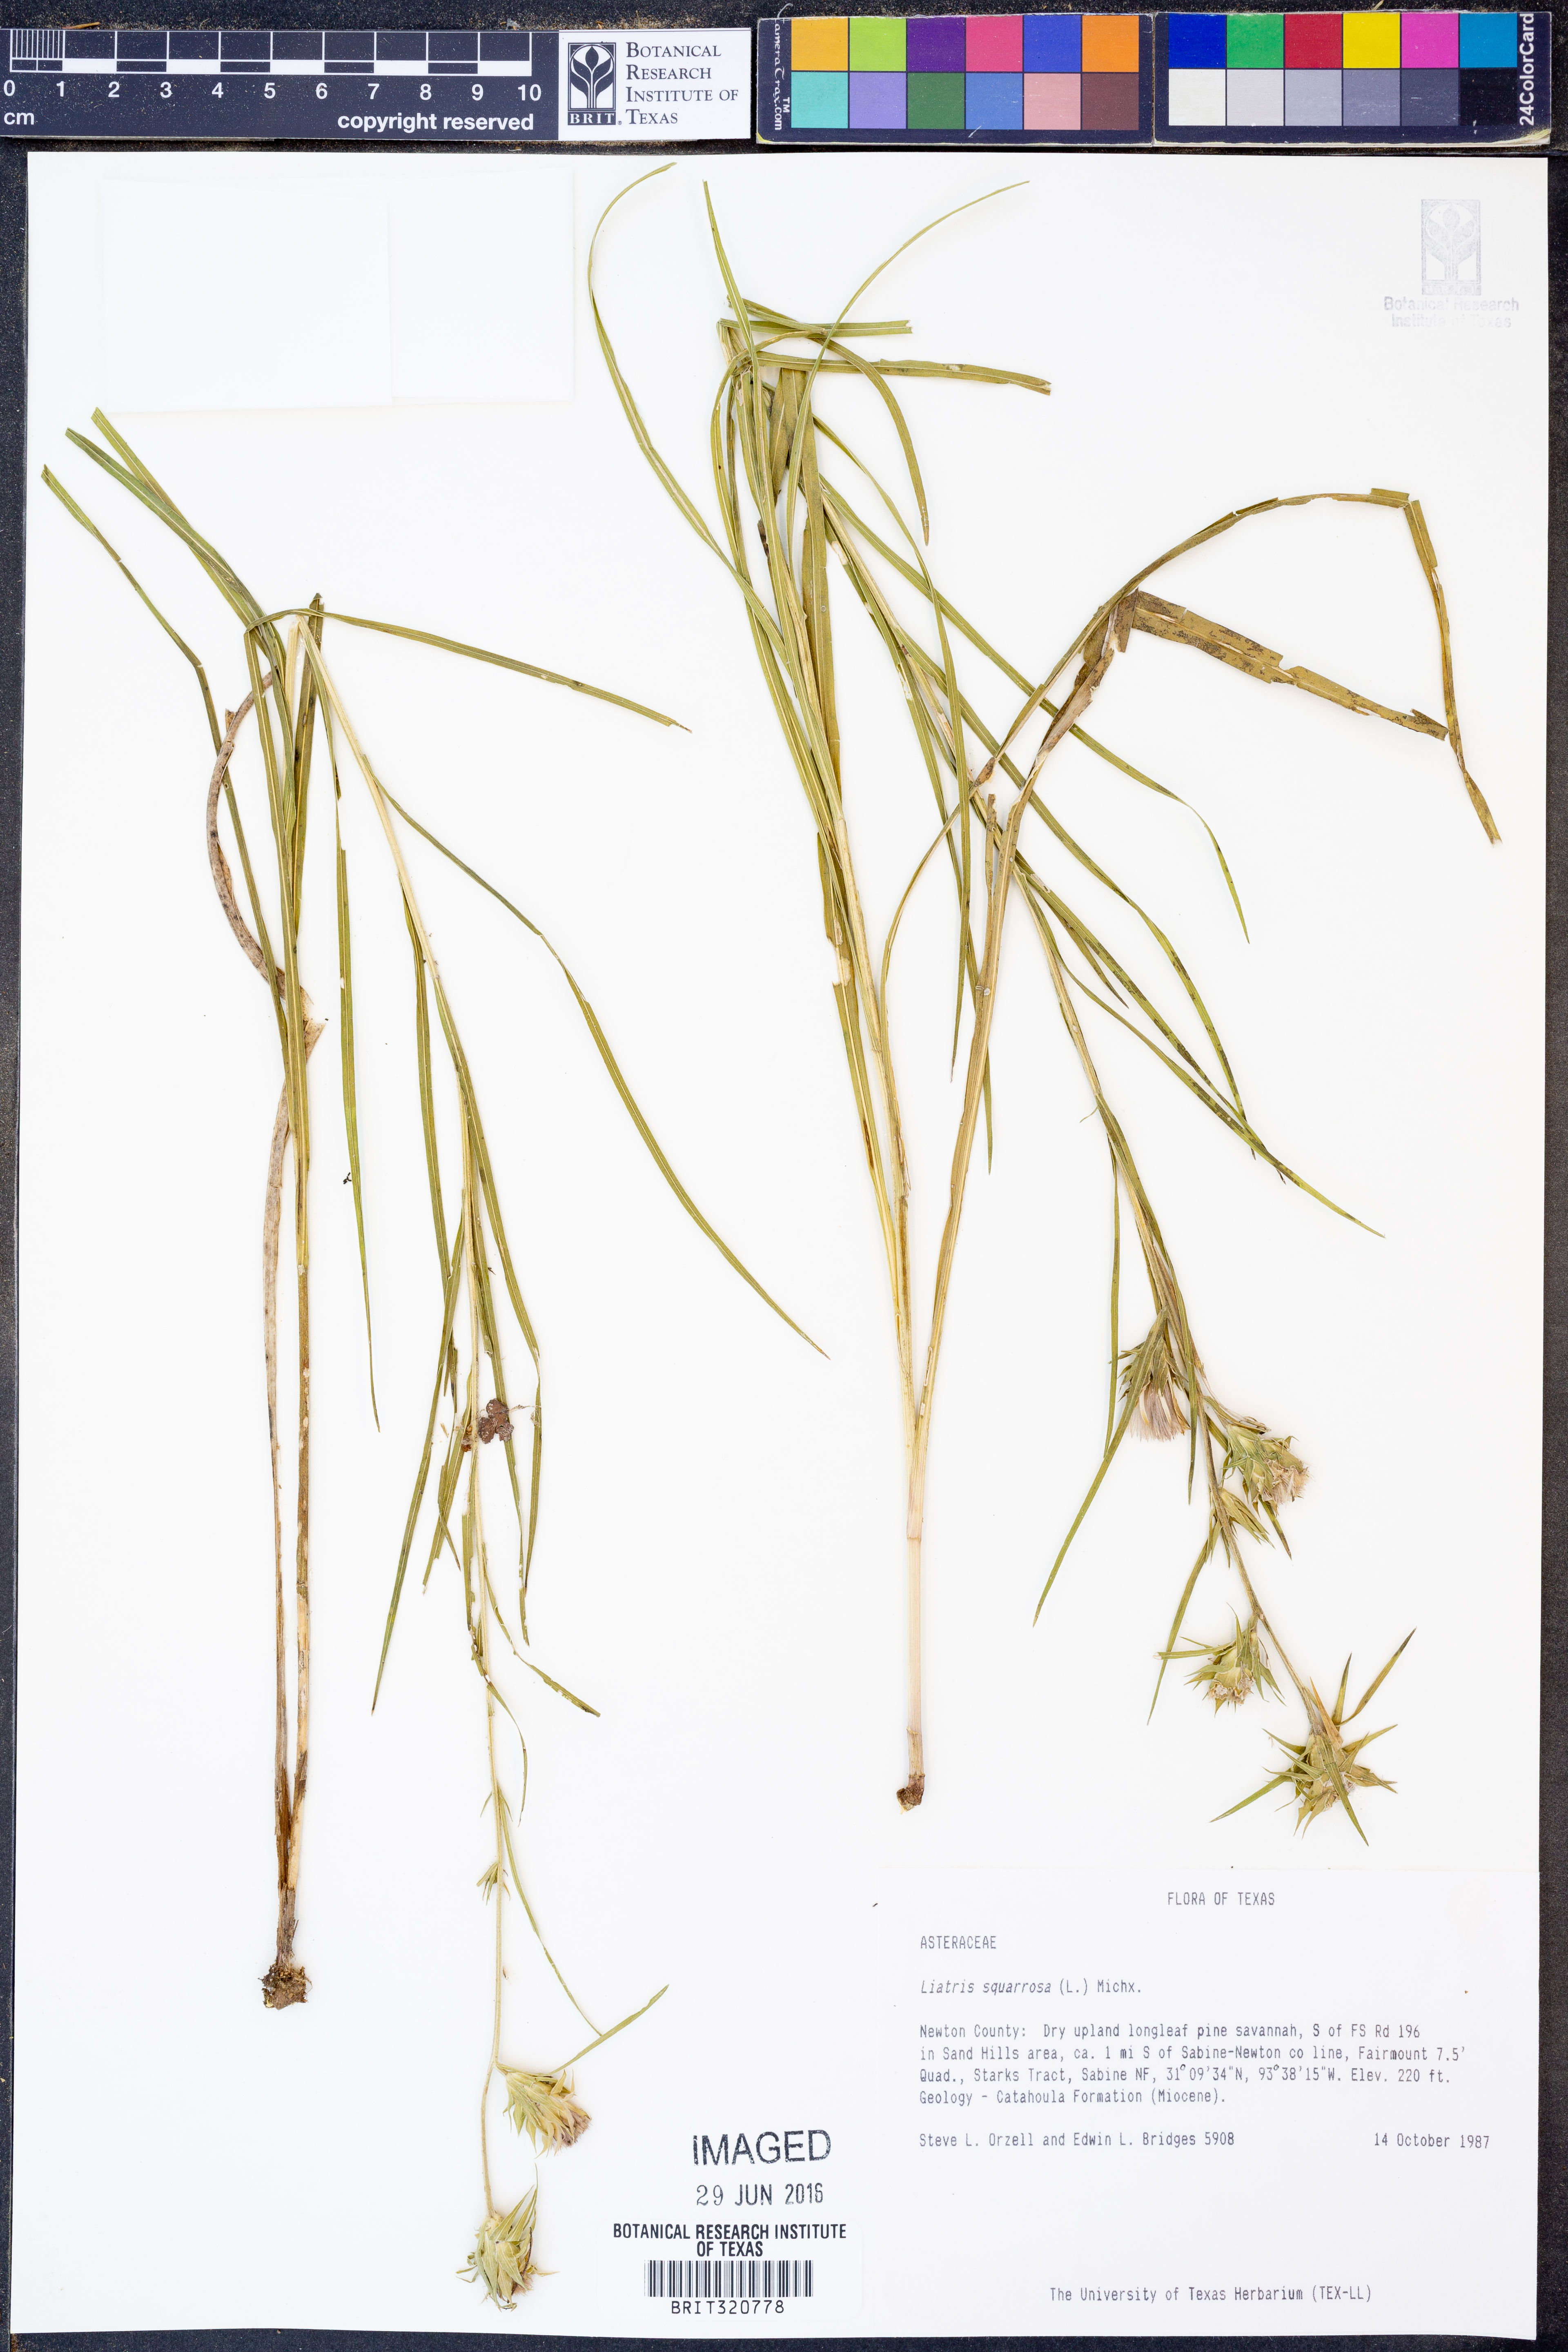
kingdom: Plantae
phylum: Tracheophyta
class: Magnoliopsida
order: Asterales
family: Asteraceae
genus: Liatris
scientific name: Liatris squarrosa
